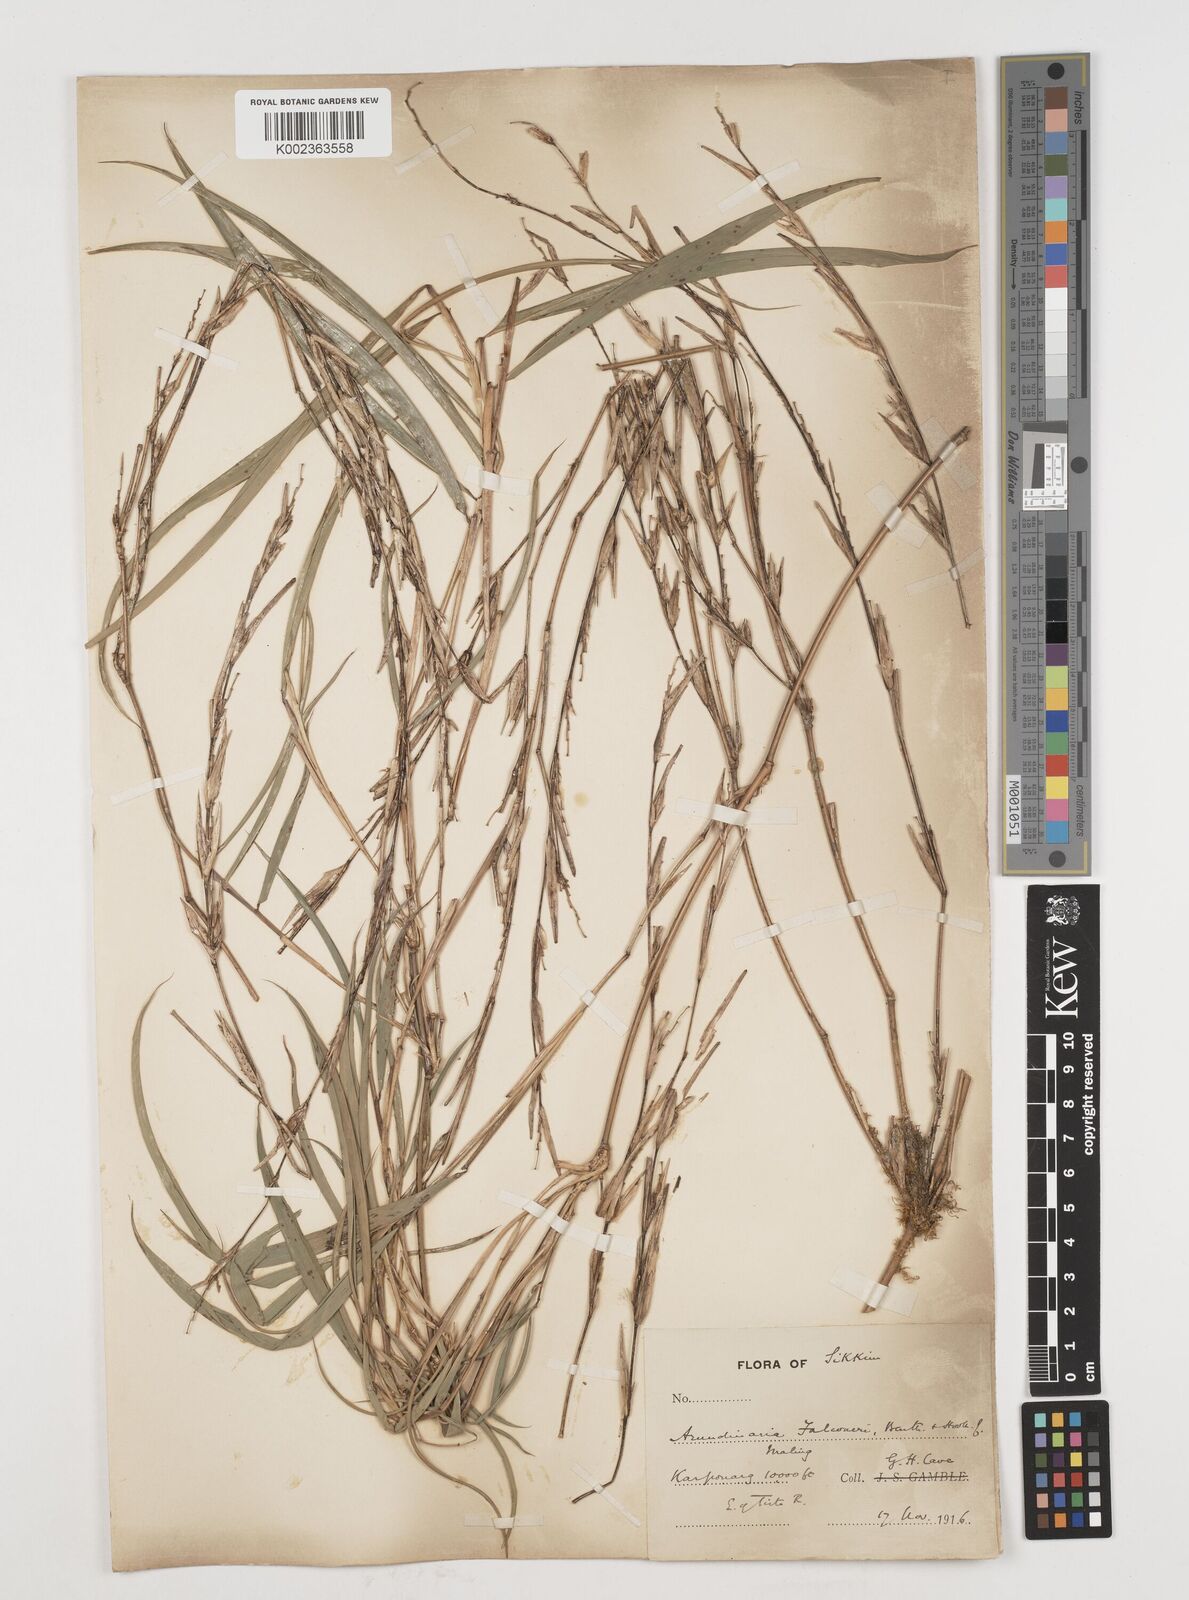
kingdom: Plantae
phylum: Tracheophyta
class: Liliopsida
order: Poales
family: Poaceae
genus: Himalayacalamus
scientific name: Himalayacalamus falconeri
